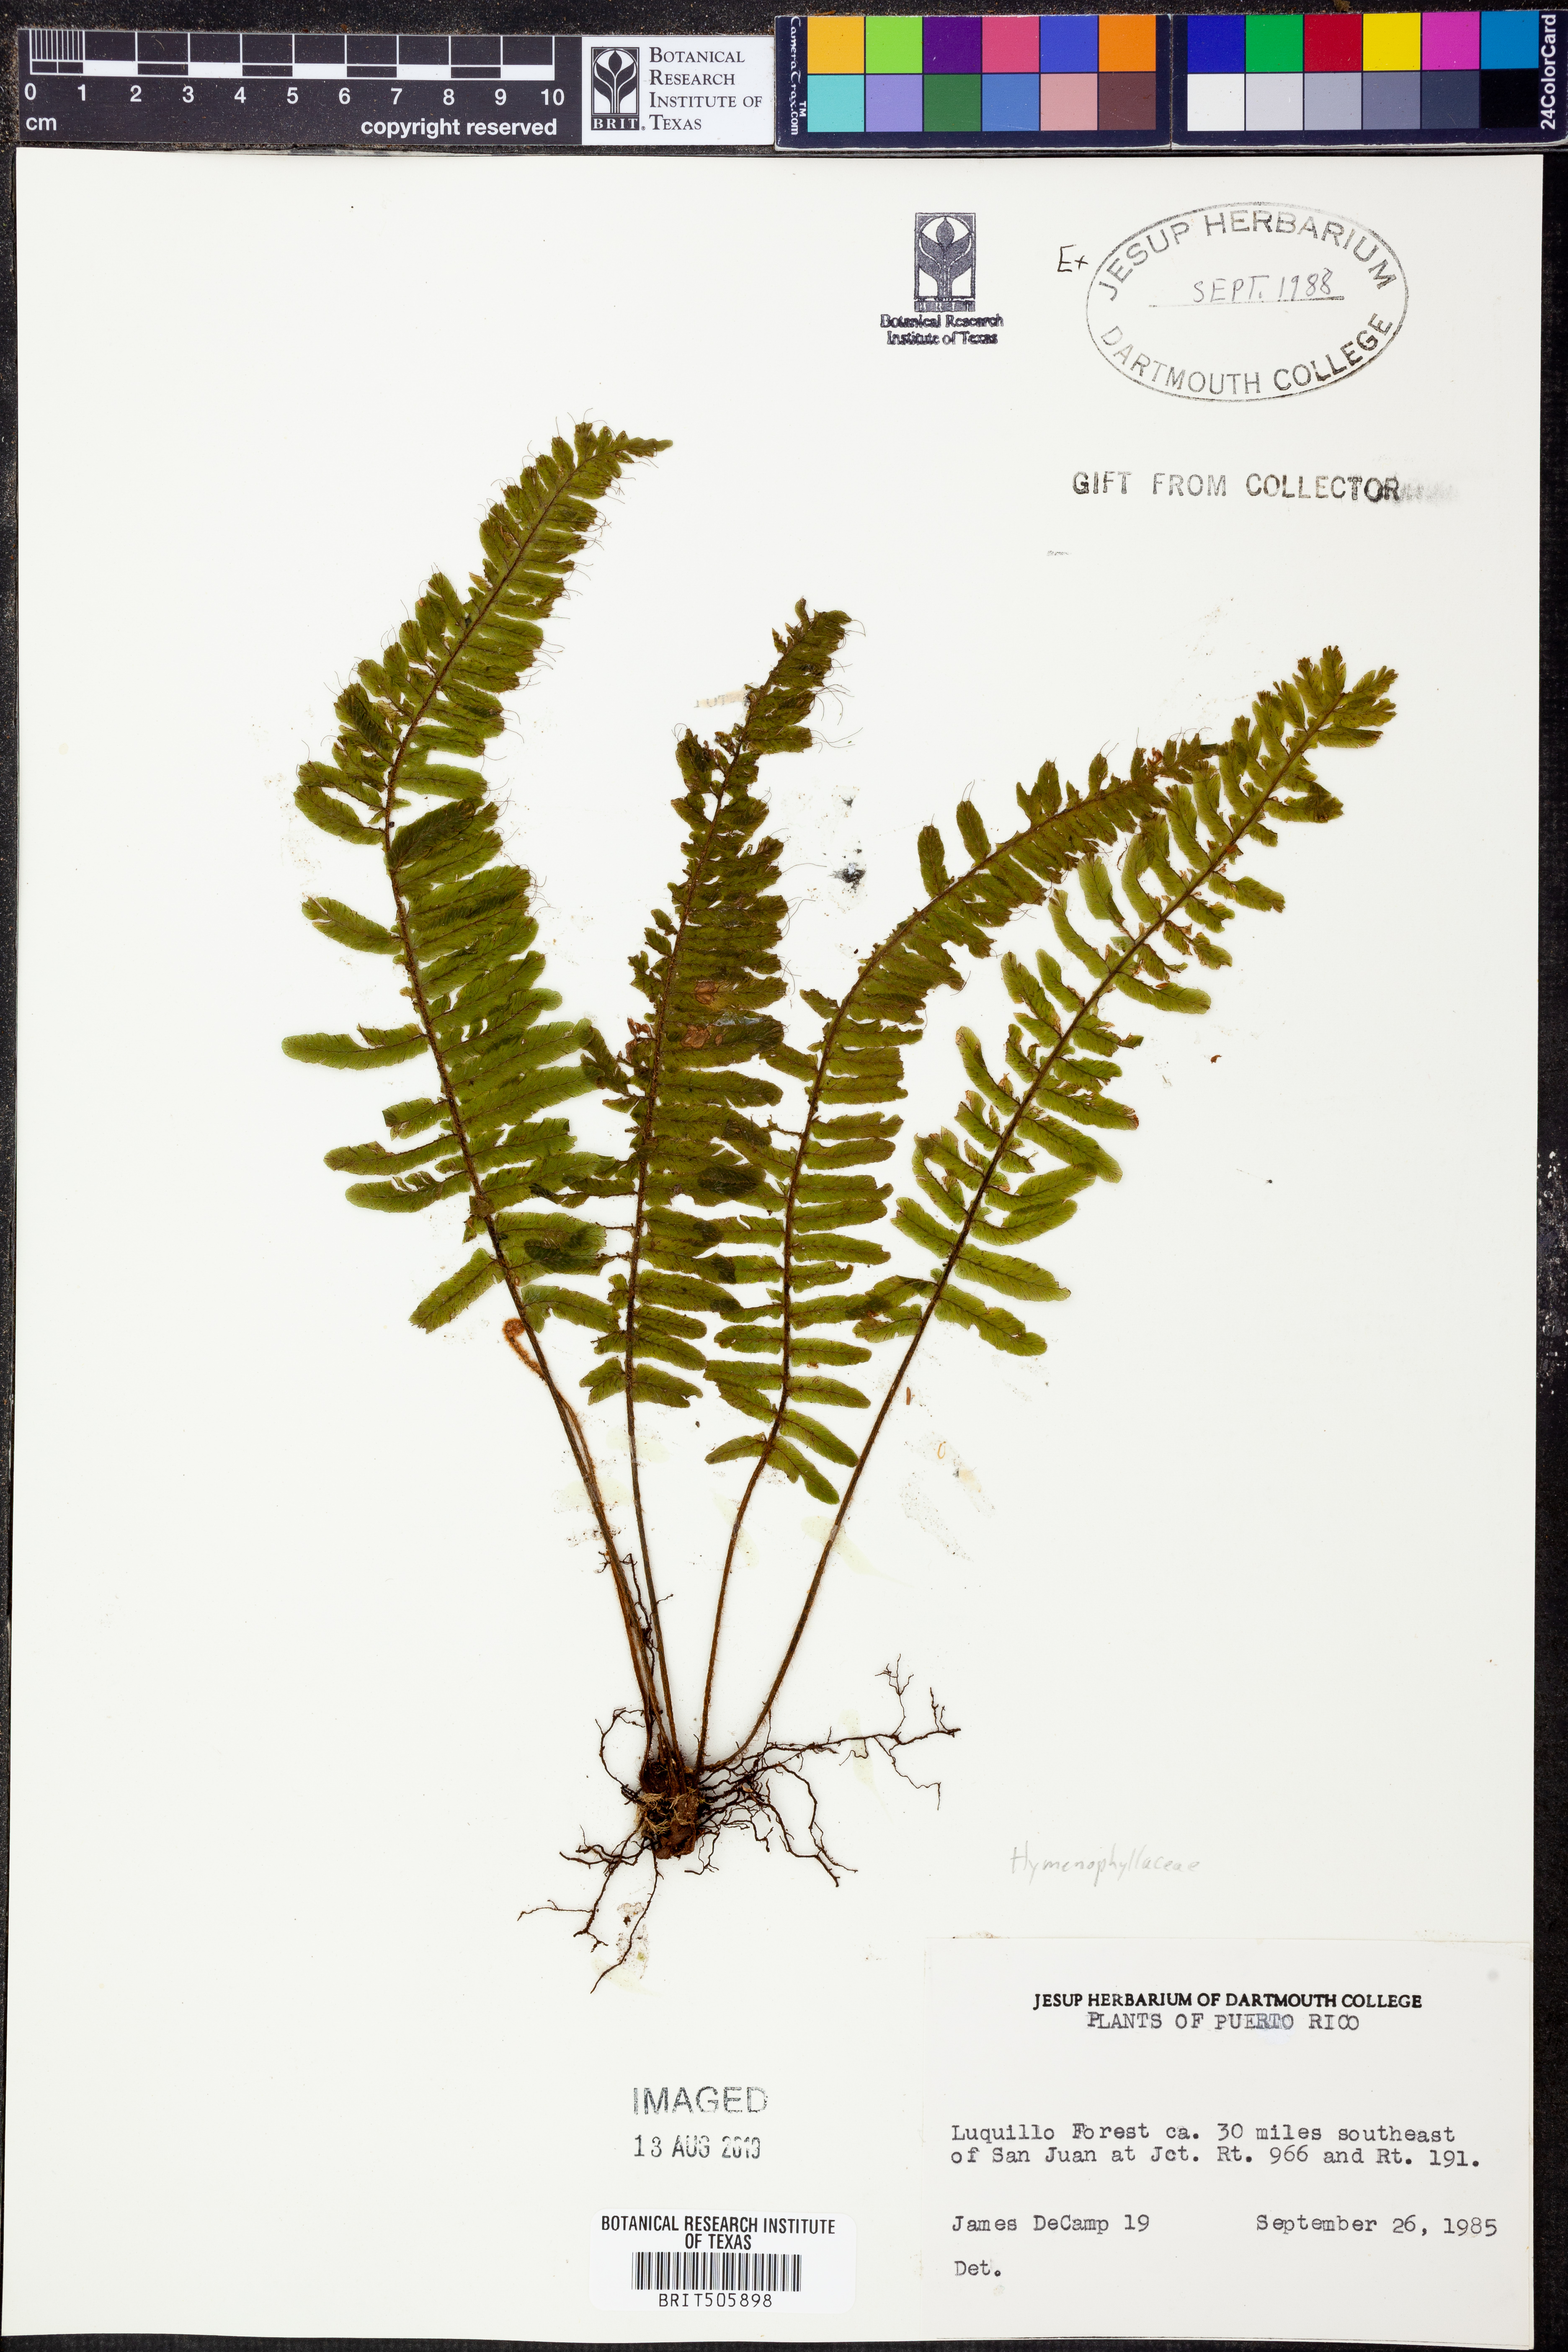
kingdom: Plantae
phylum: Tracheophyta
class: Polypodiopsida
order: Hymenophyllales
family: Hymenophyllaceae
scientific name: Hymenophyllaceae
